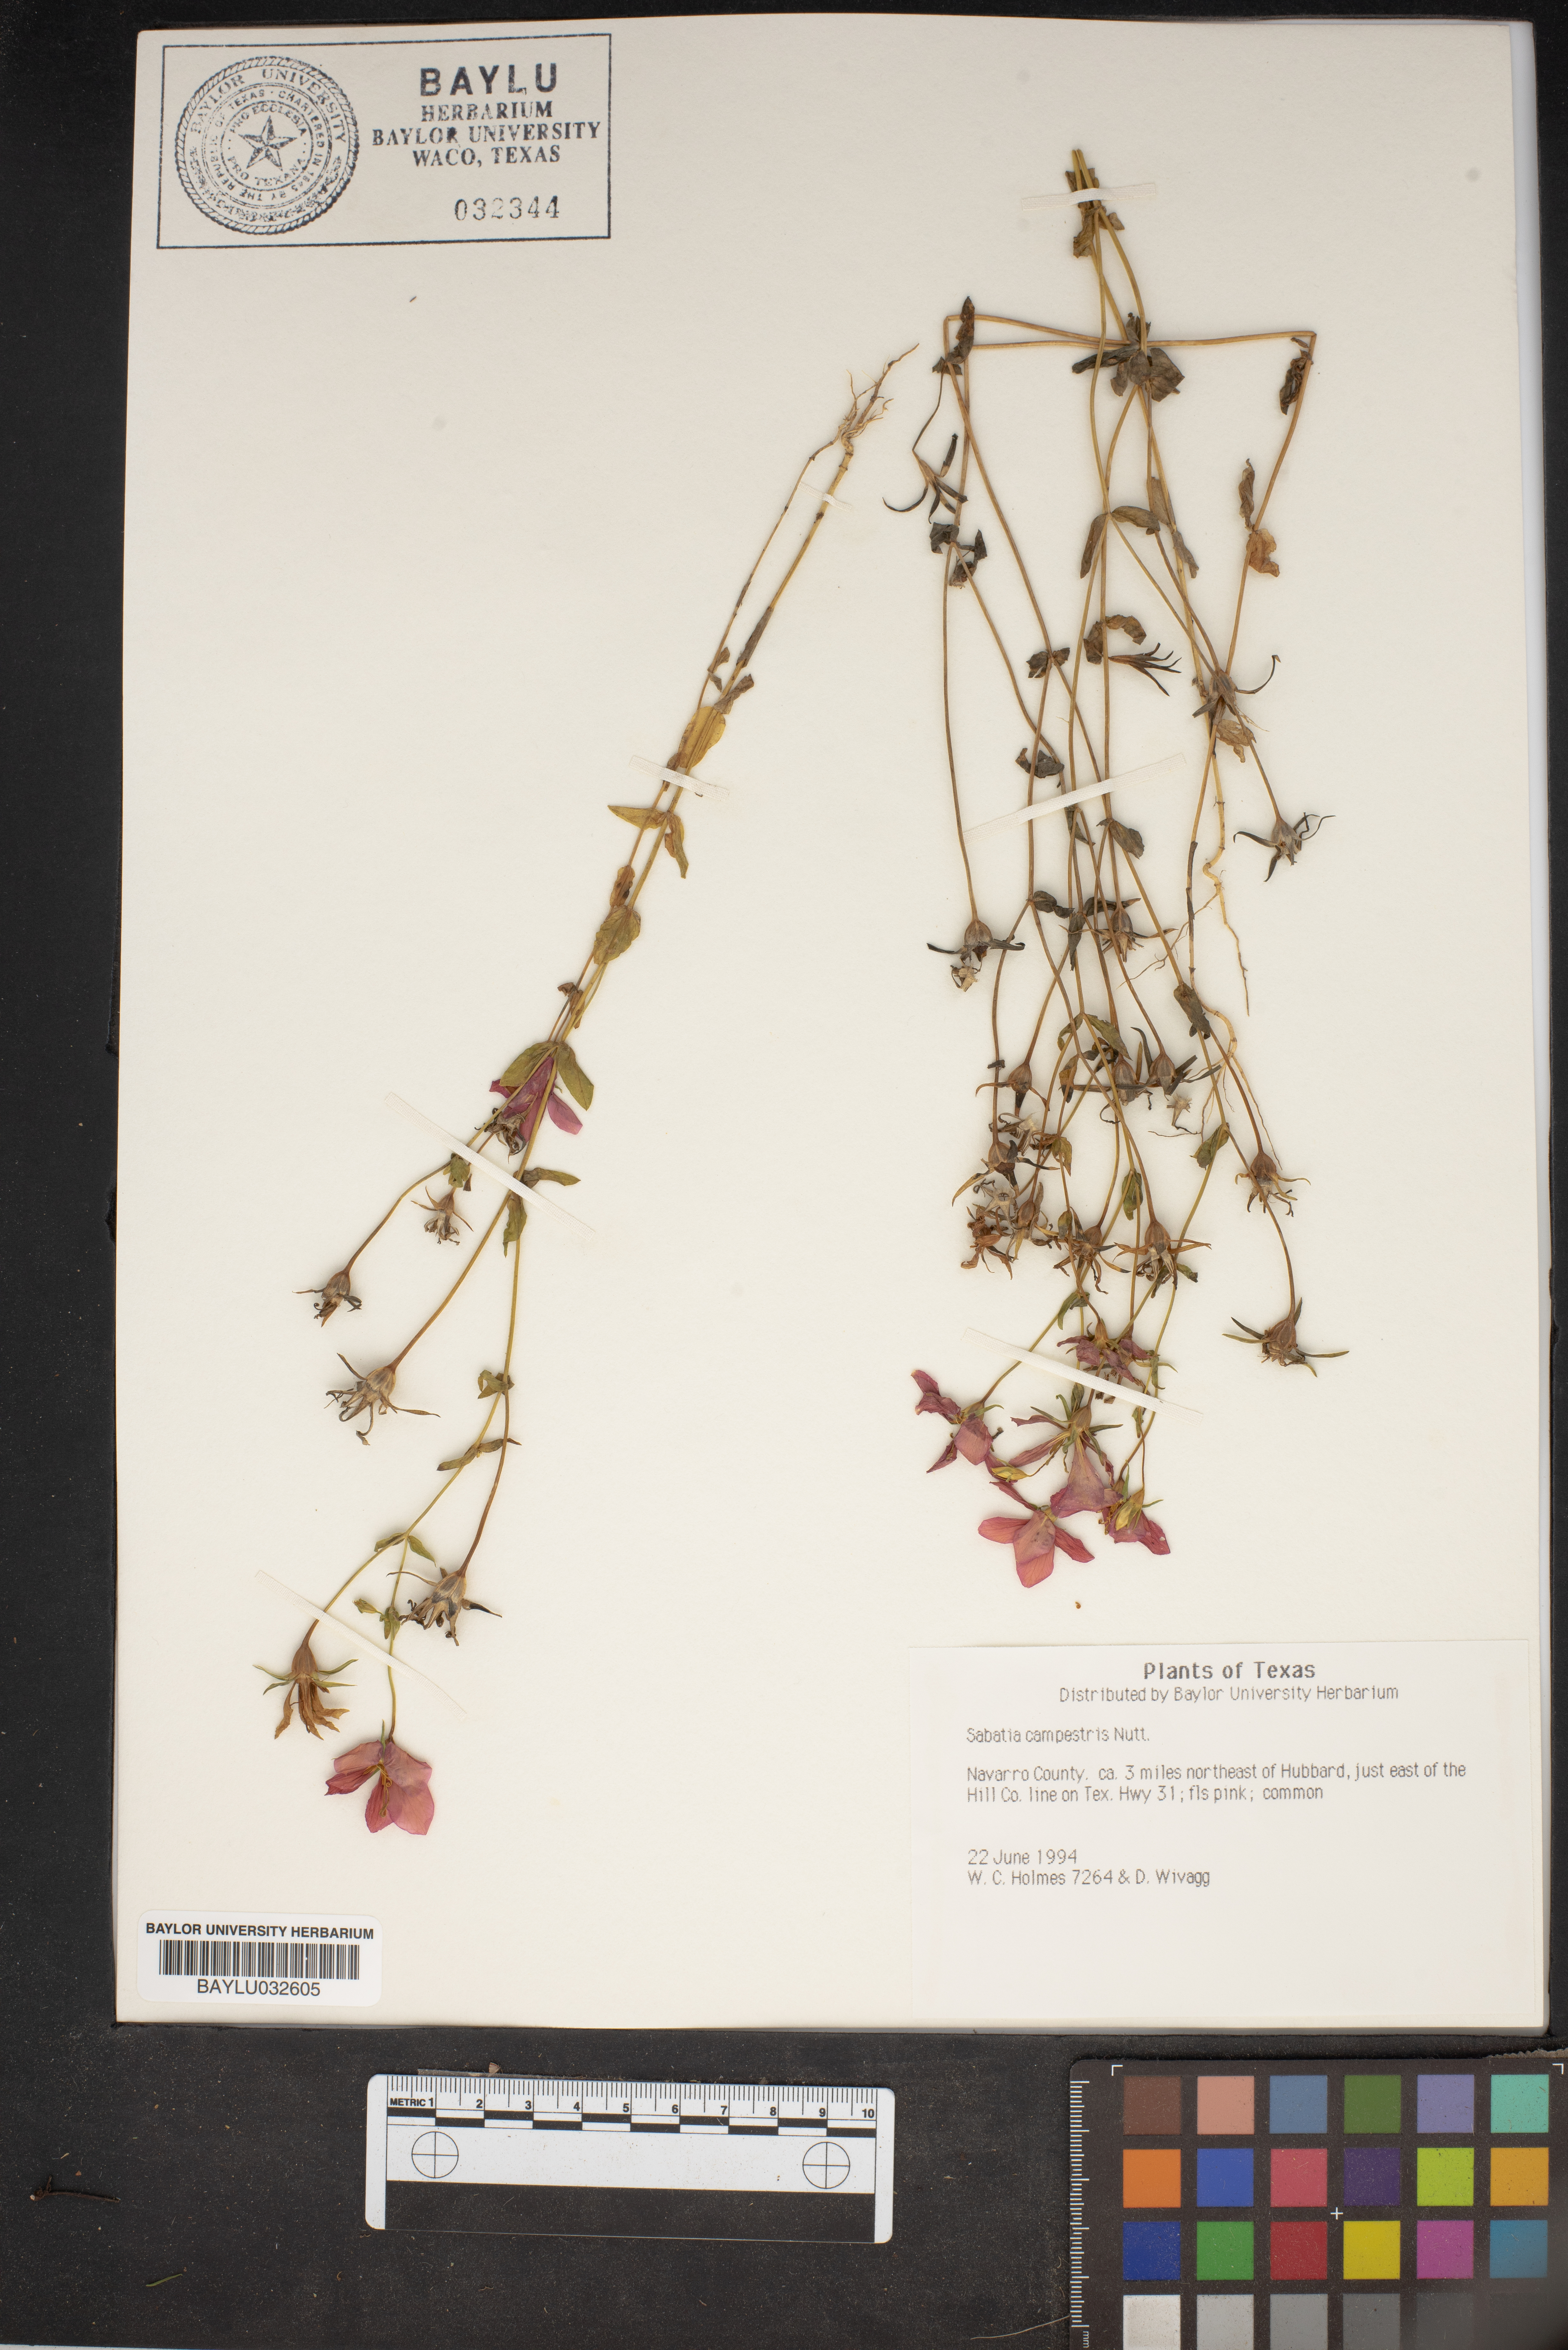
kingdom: Plantae
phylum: Tracheophyta
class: Magnoliopsida
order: Gentianales
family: Gentianaceae
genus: Sabatia
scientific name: Sabatia campestris
